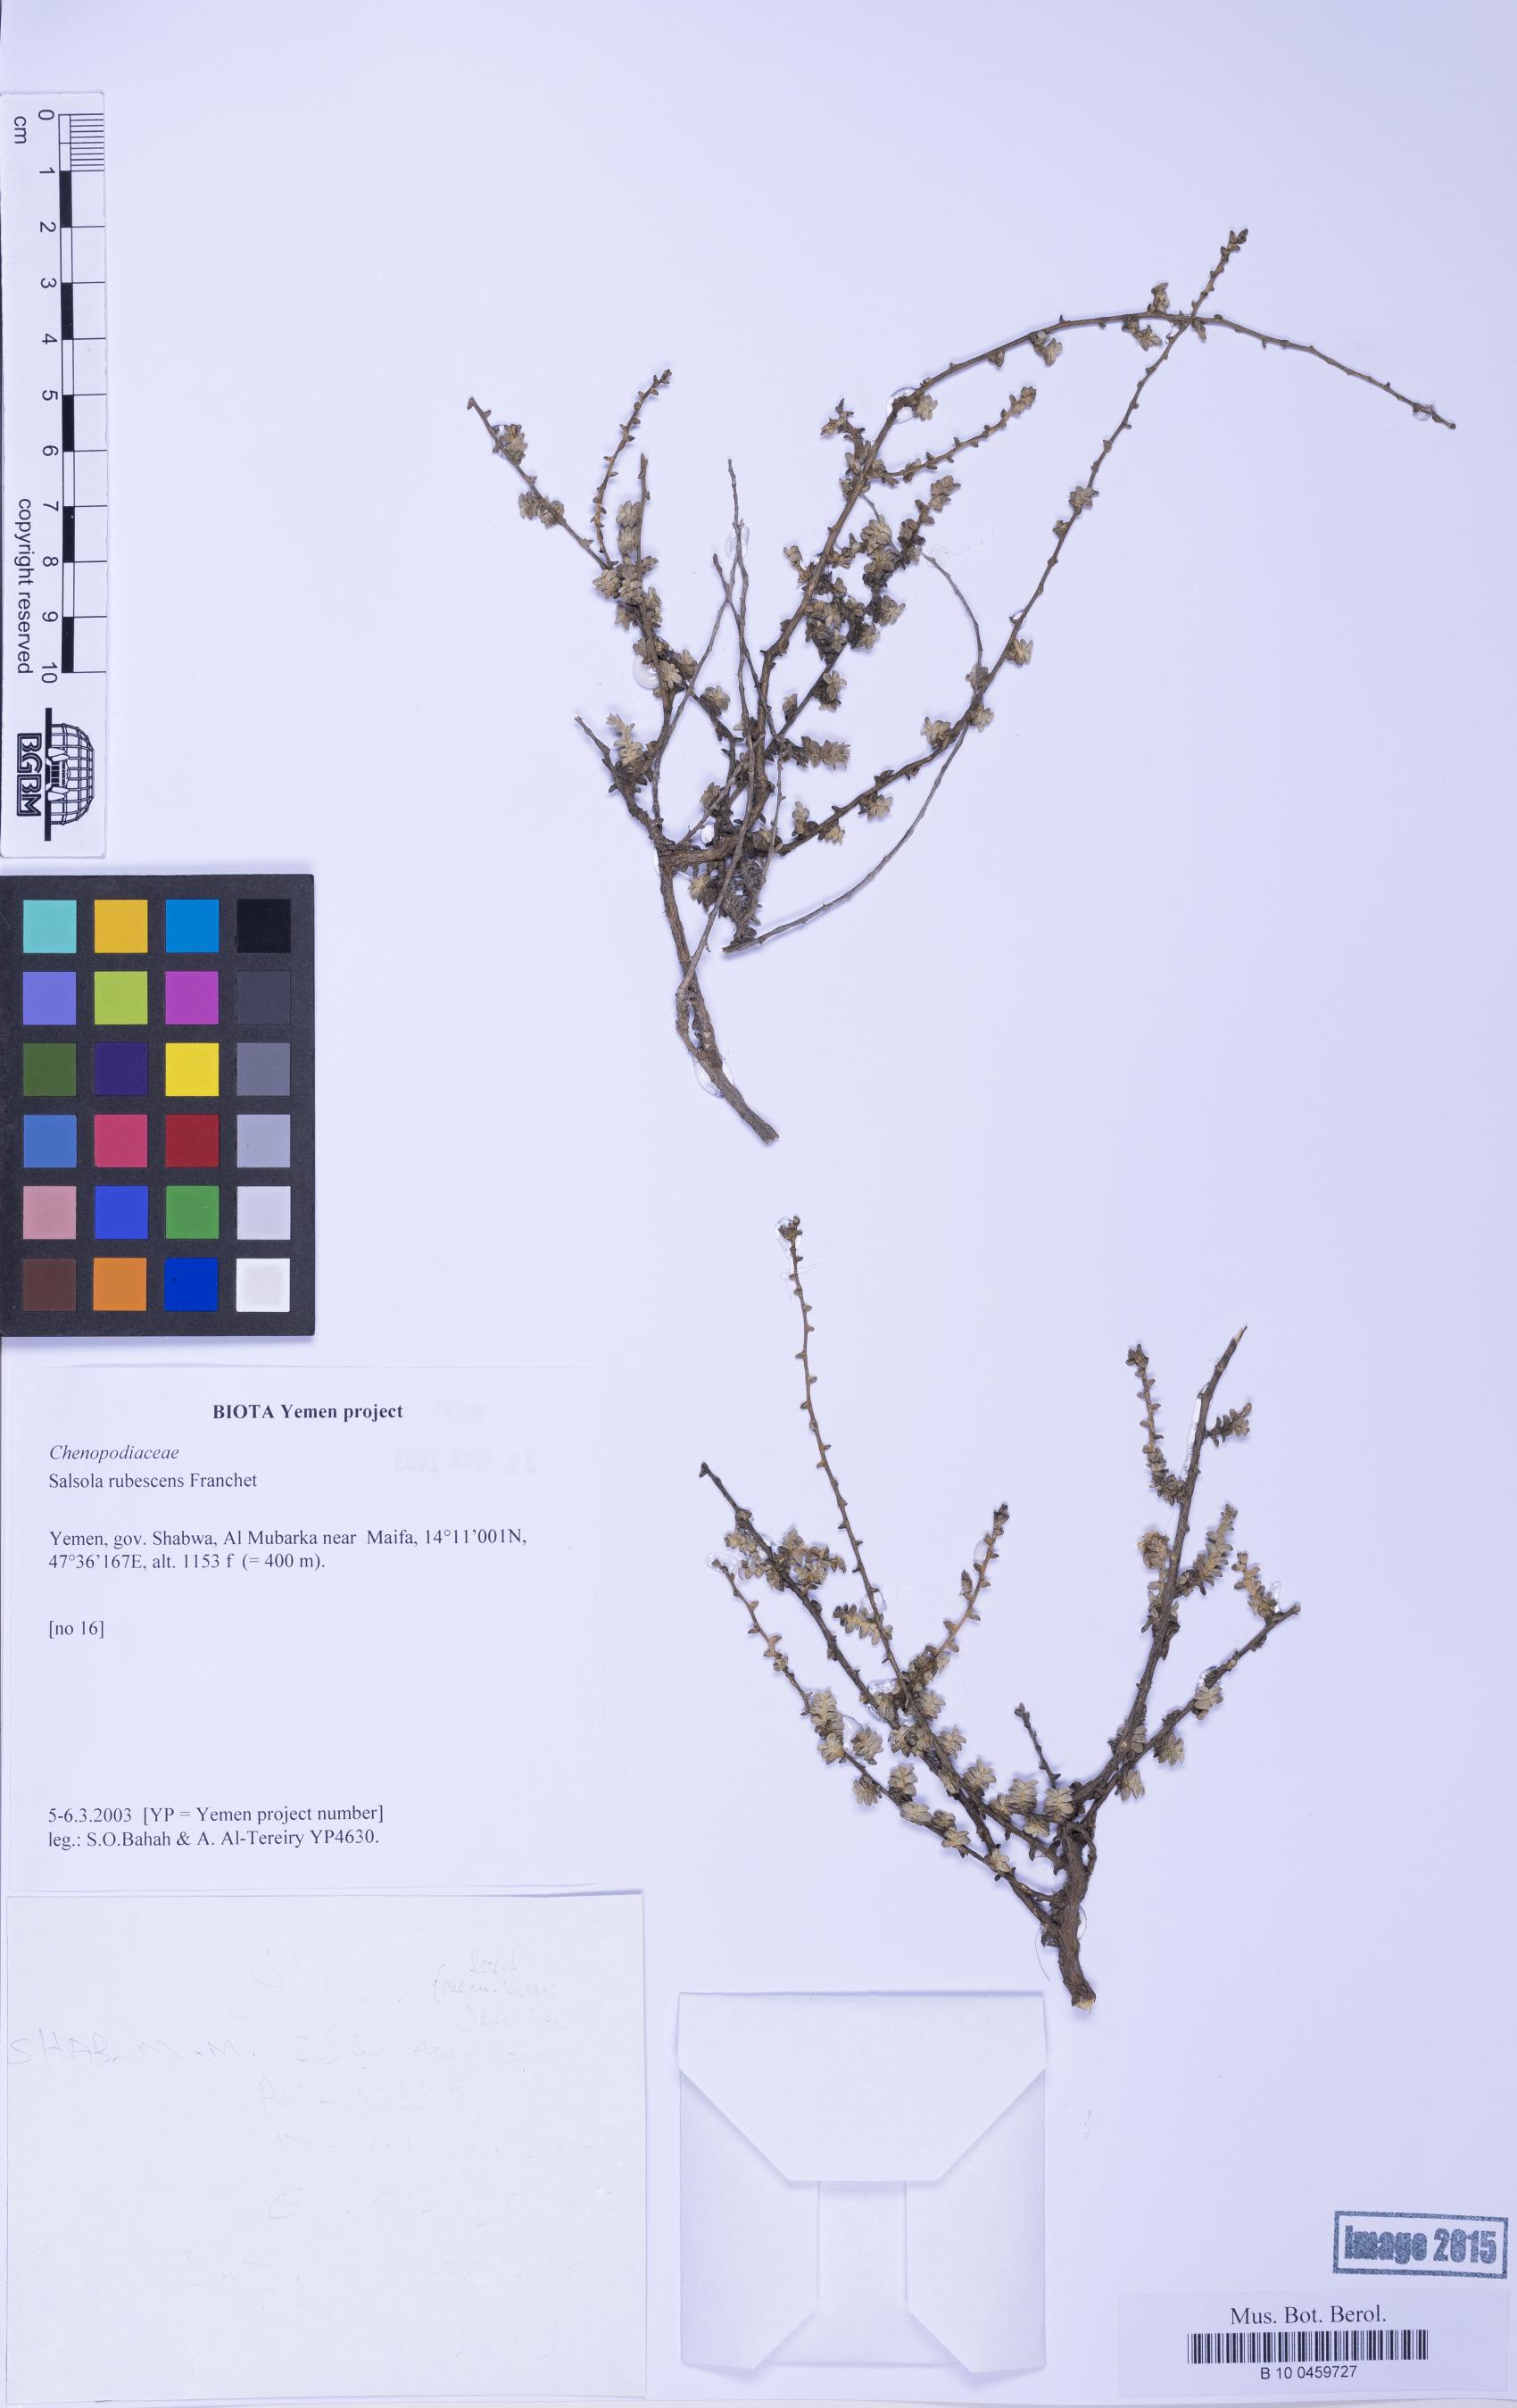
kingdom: Plantae
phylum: Tracheophyta
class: Magnoliopsida
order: Caryophyllales
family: Amaranthaceae
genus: Kaviria
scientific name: Kaviria rubescens
